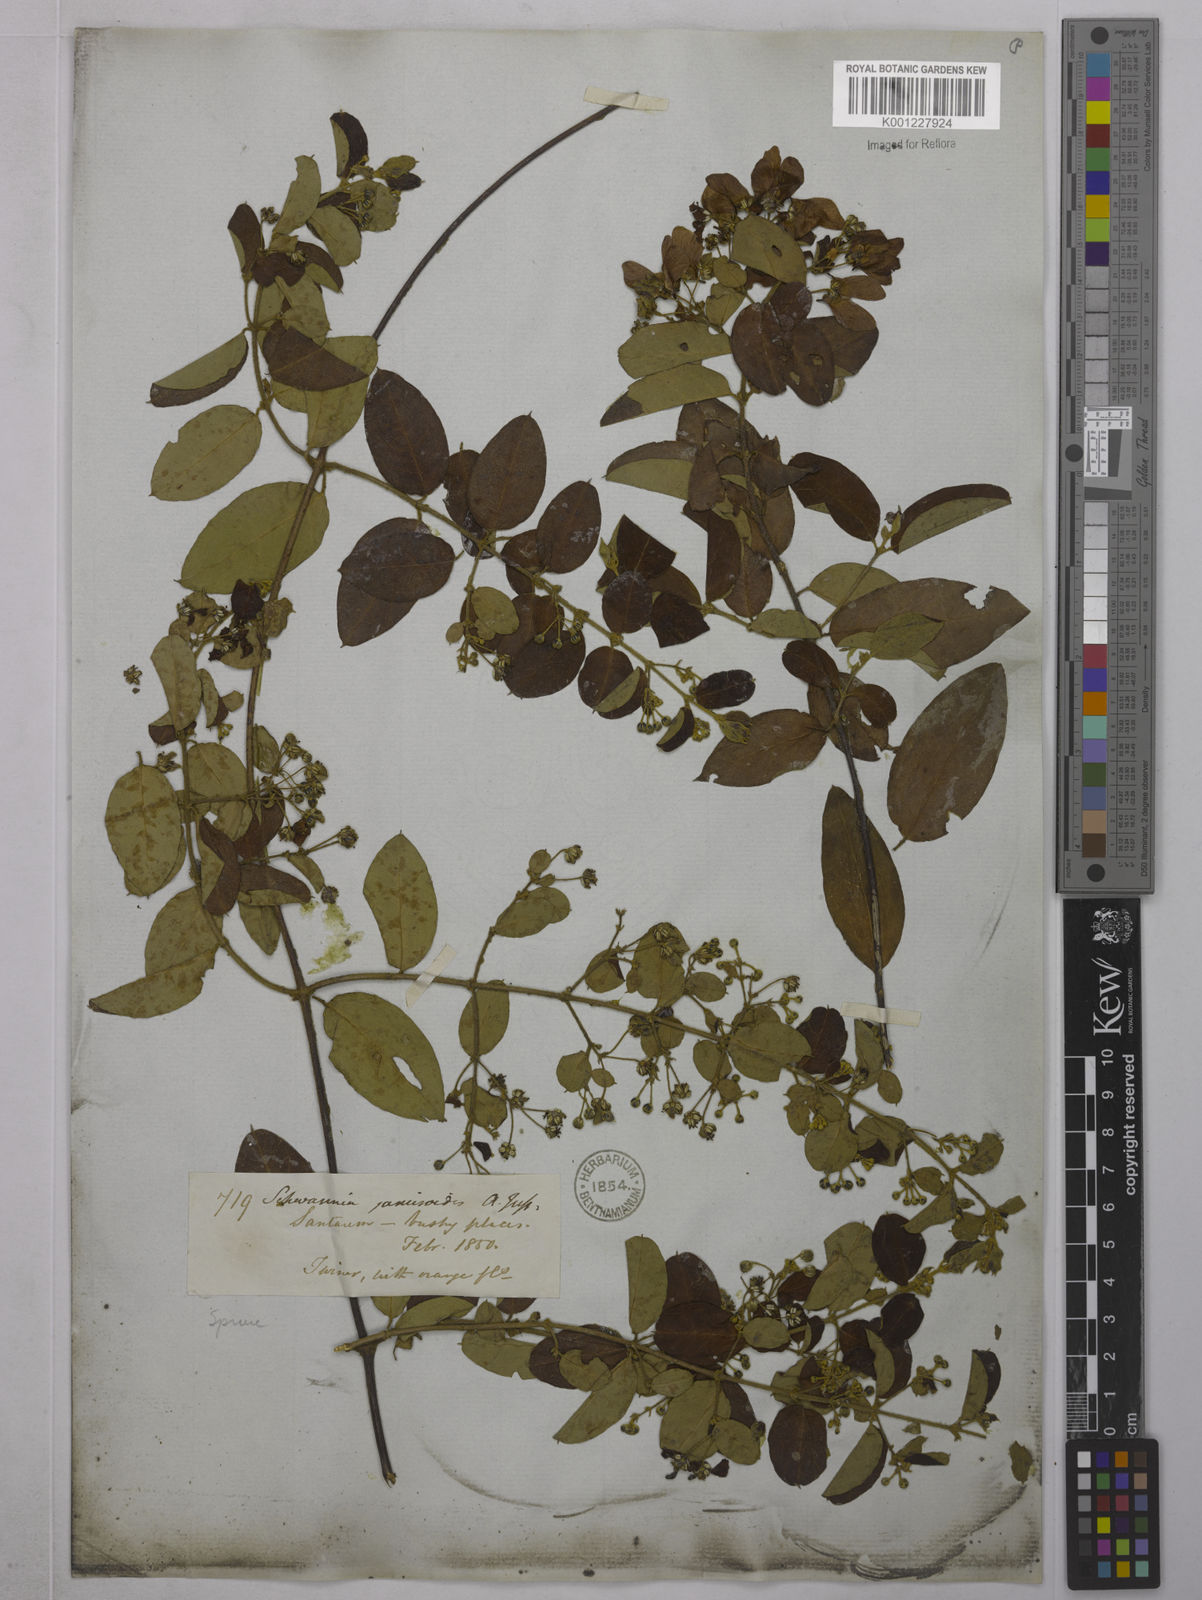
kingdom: Plantae
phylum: Tracheophyta
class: Magnoliopsida
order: Malpighiales
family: Malpighiaceae
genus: Janusia
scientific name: Janusia janusioides
